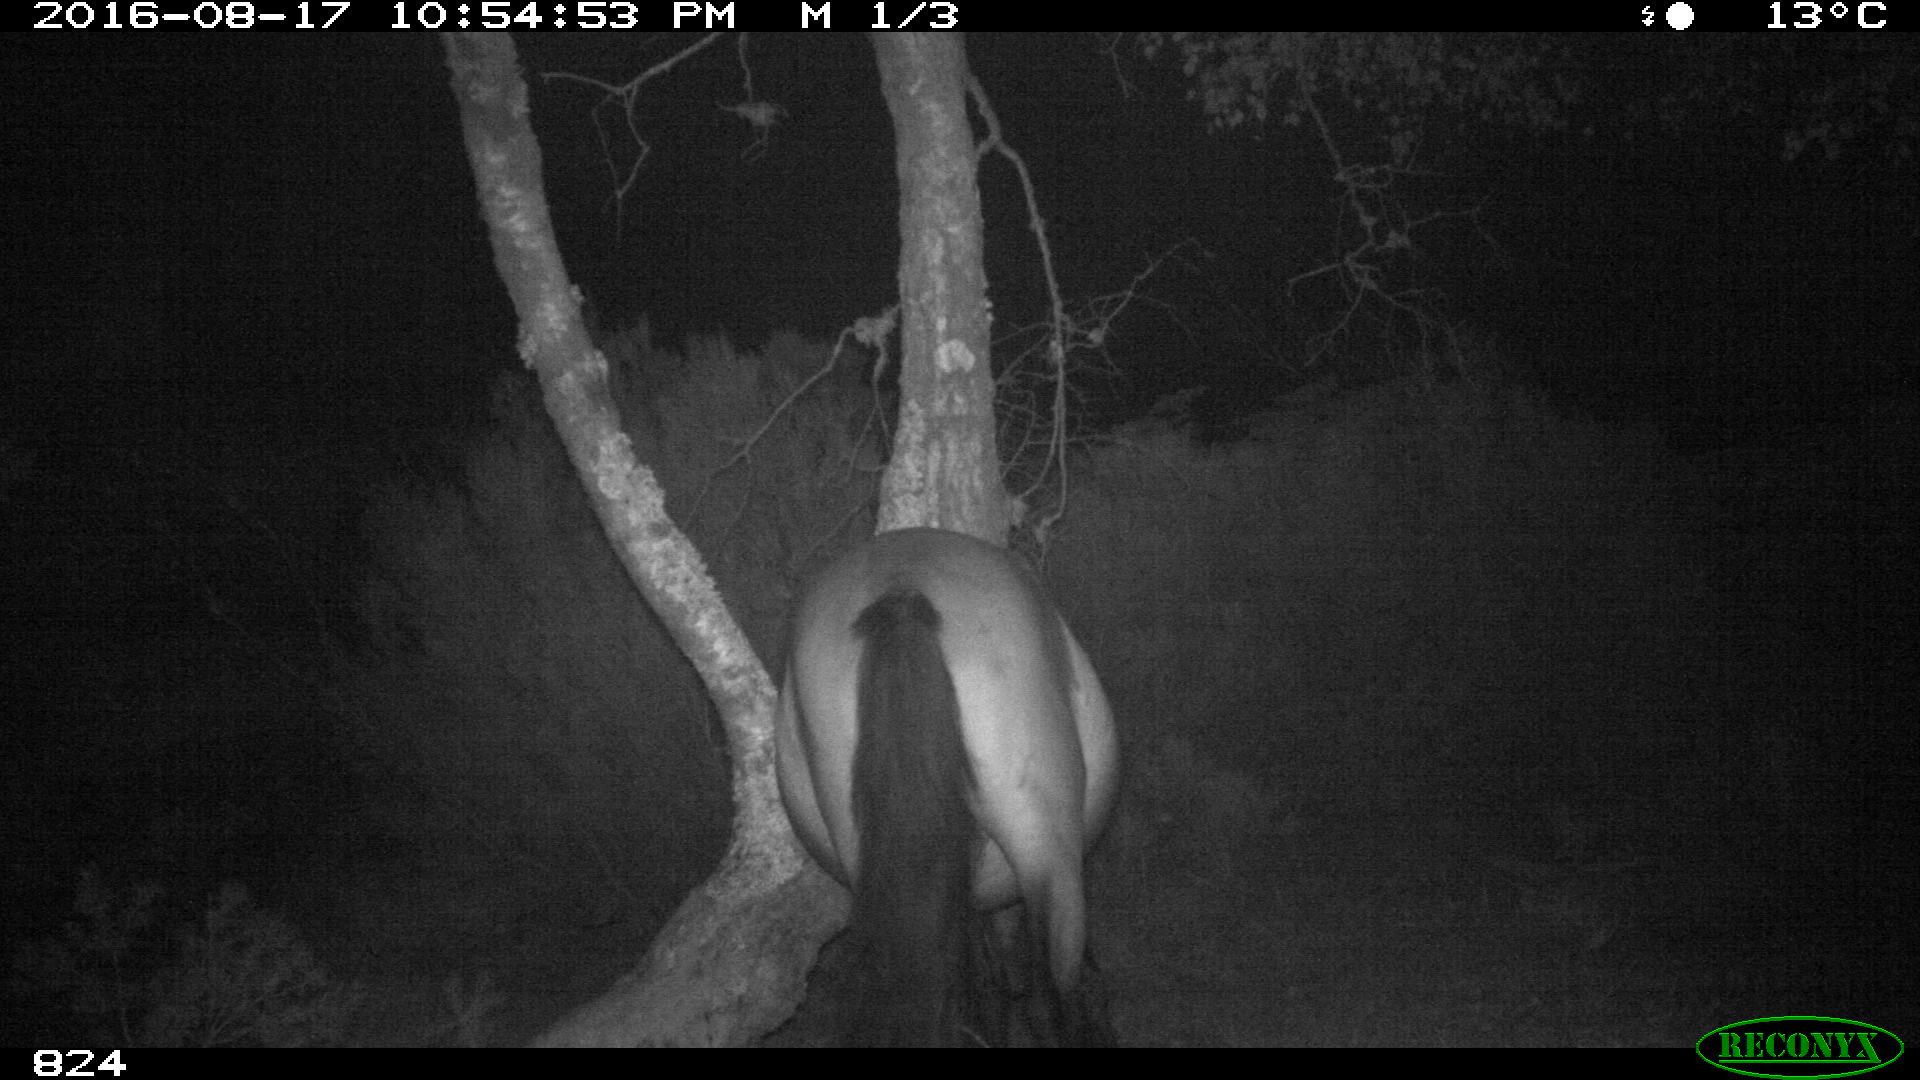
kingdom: Animalia
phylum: Chordata
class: Mammalia
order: Perissodactyla
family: Equidae
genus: Equus
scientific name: Equus caballus
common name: Horse
